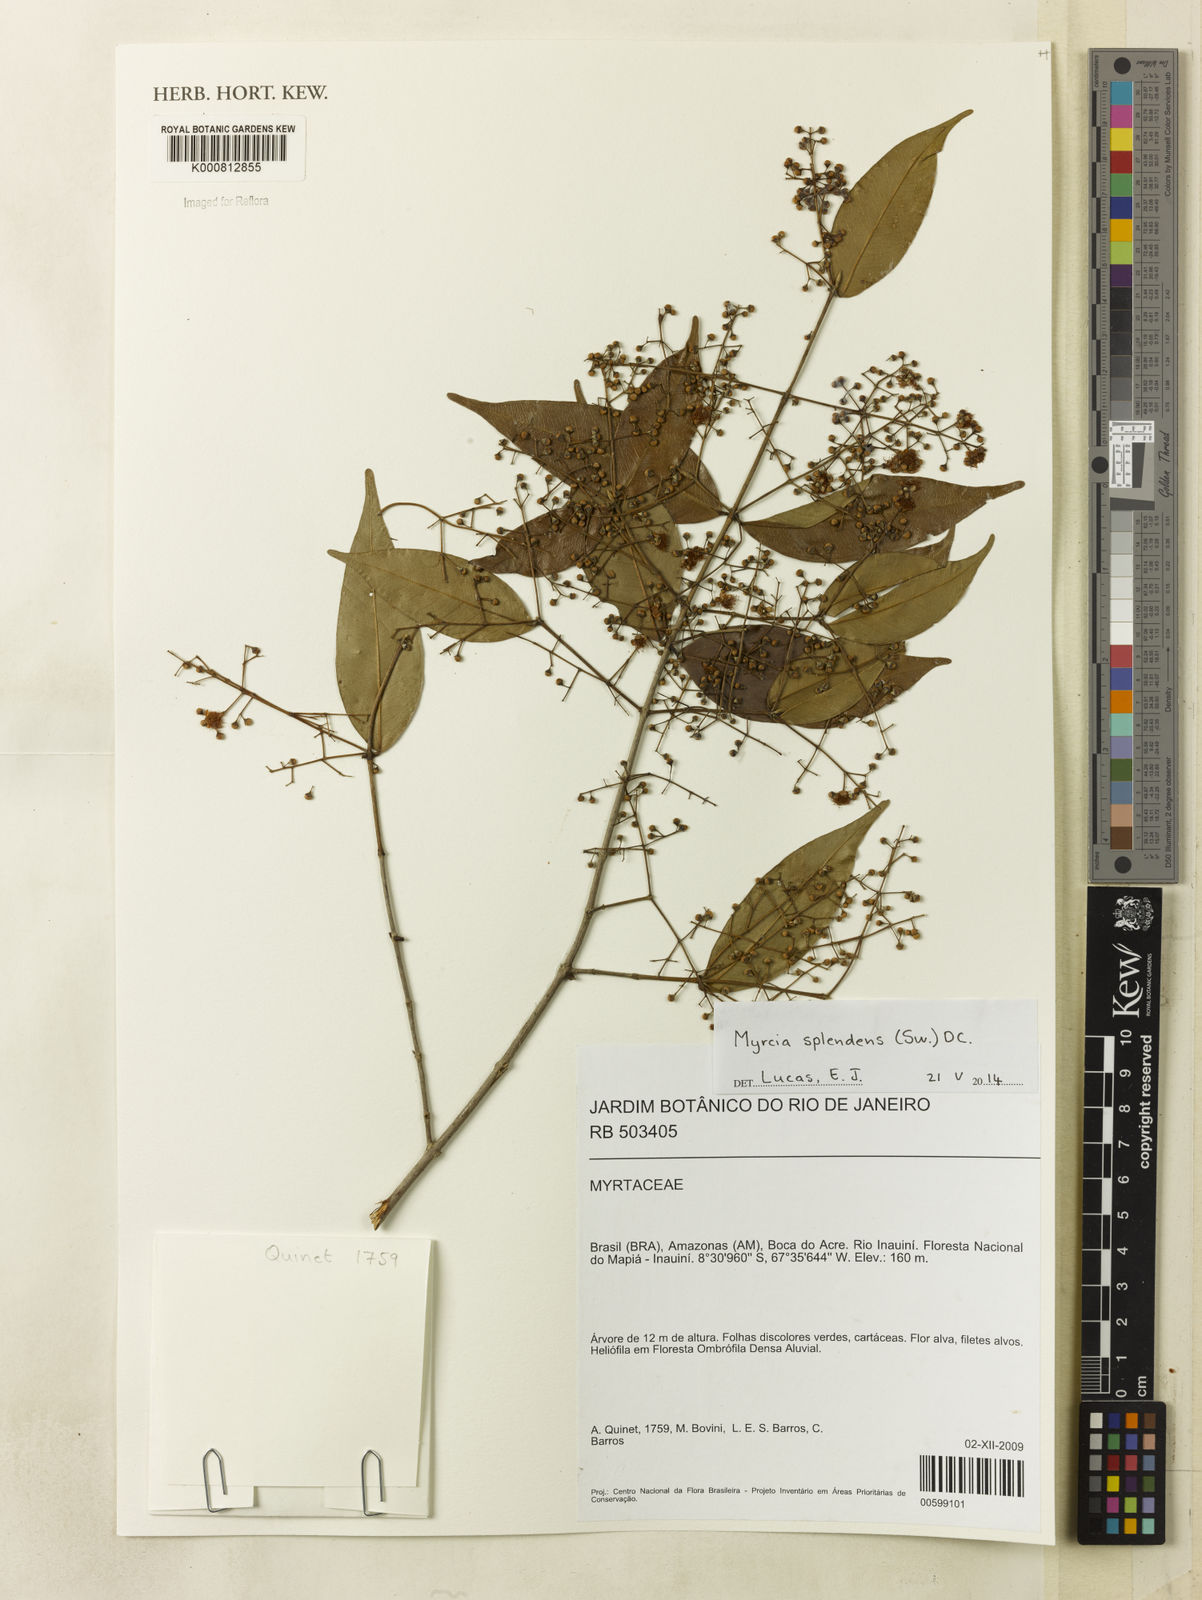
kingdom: Plantae
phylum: Tracheophyta
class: Magnoliopsida
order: Myrtales
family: Myrtaceae
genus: Myrcia
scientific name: Myrcia splendens
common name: Surinam cherry
